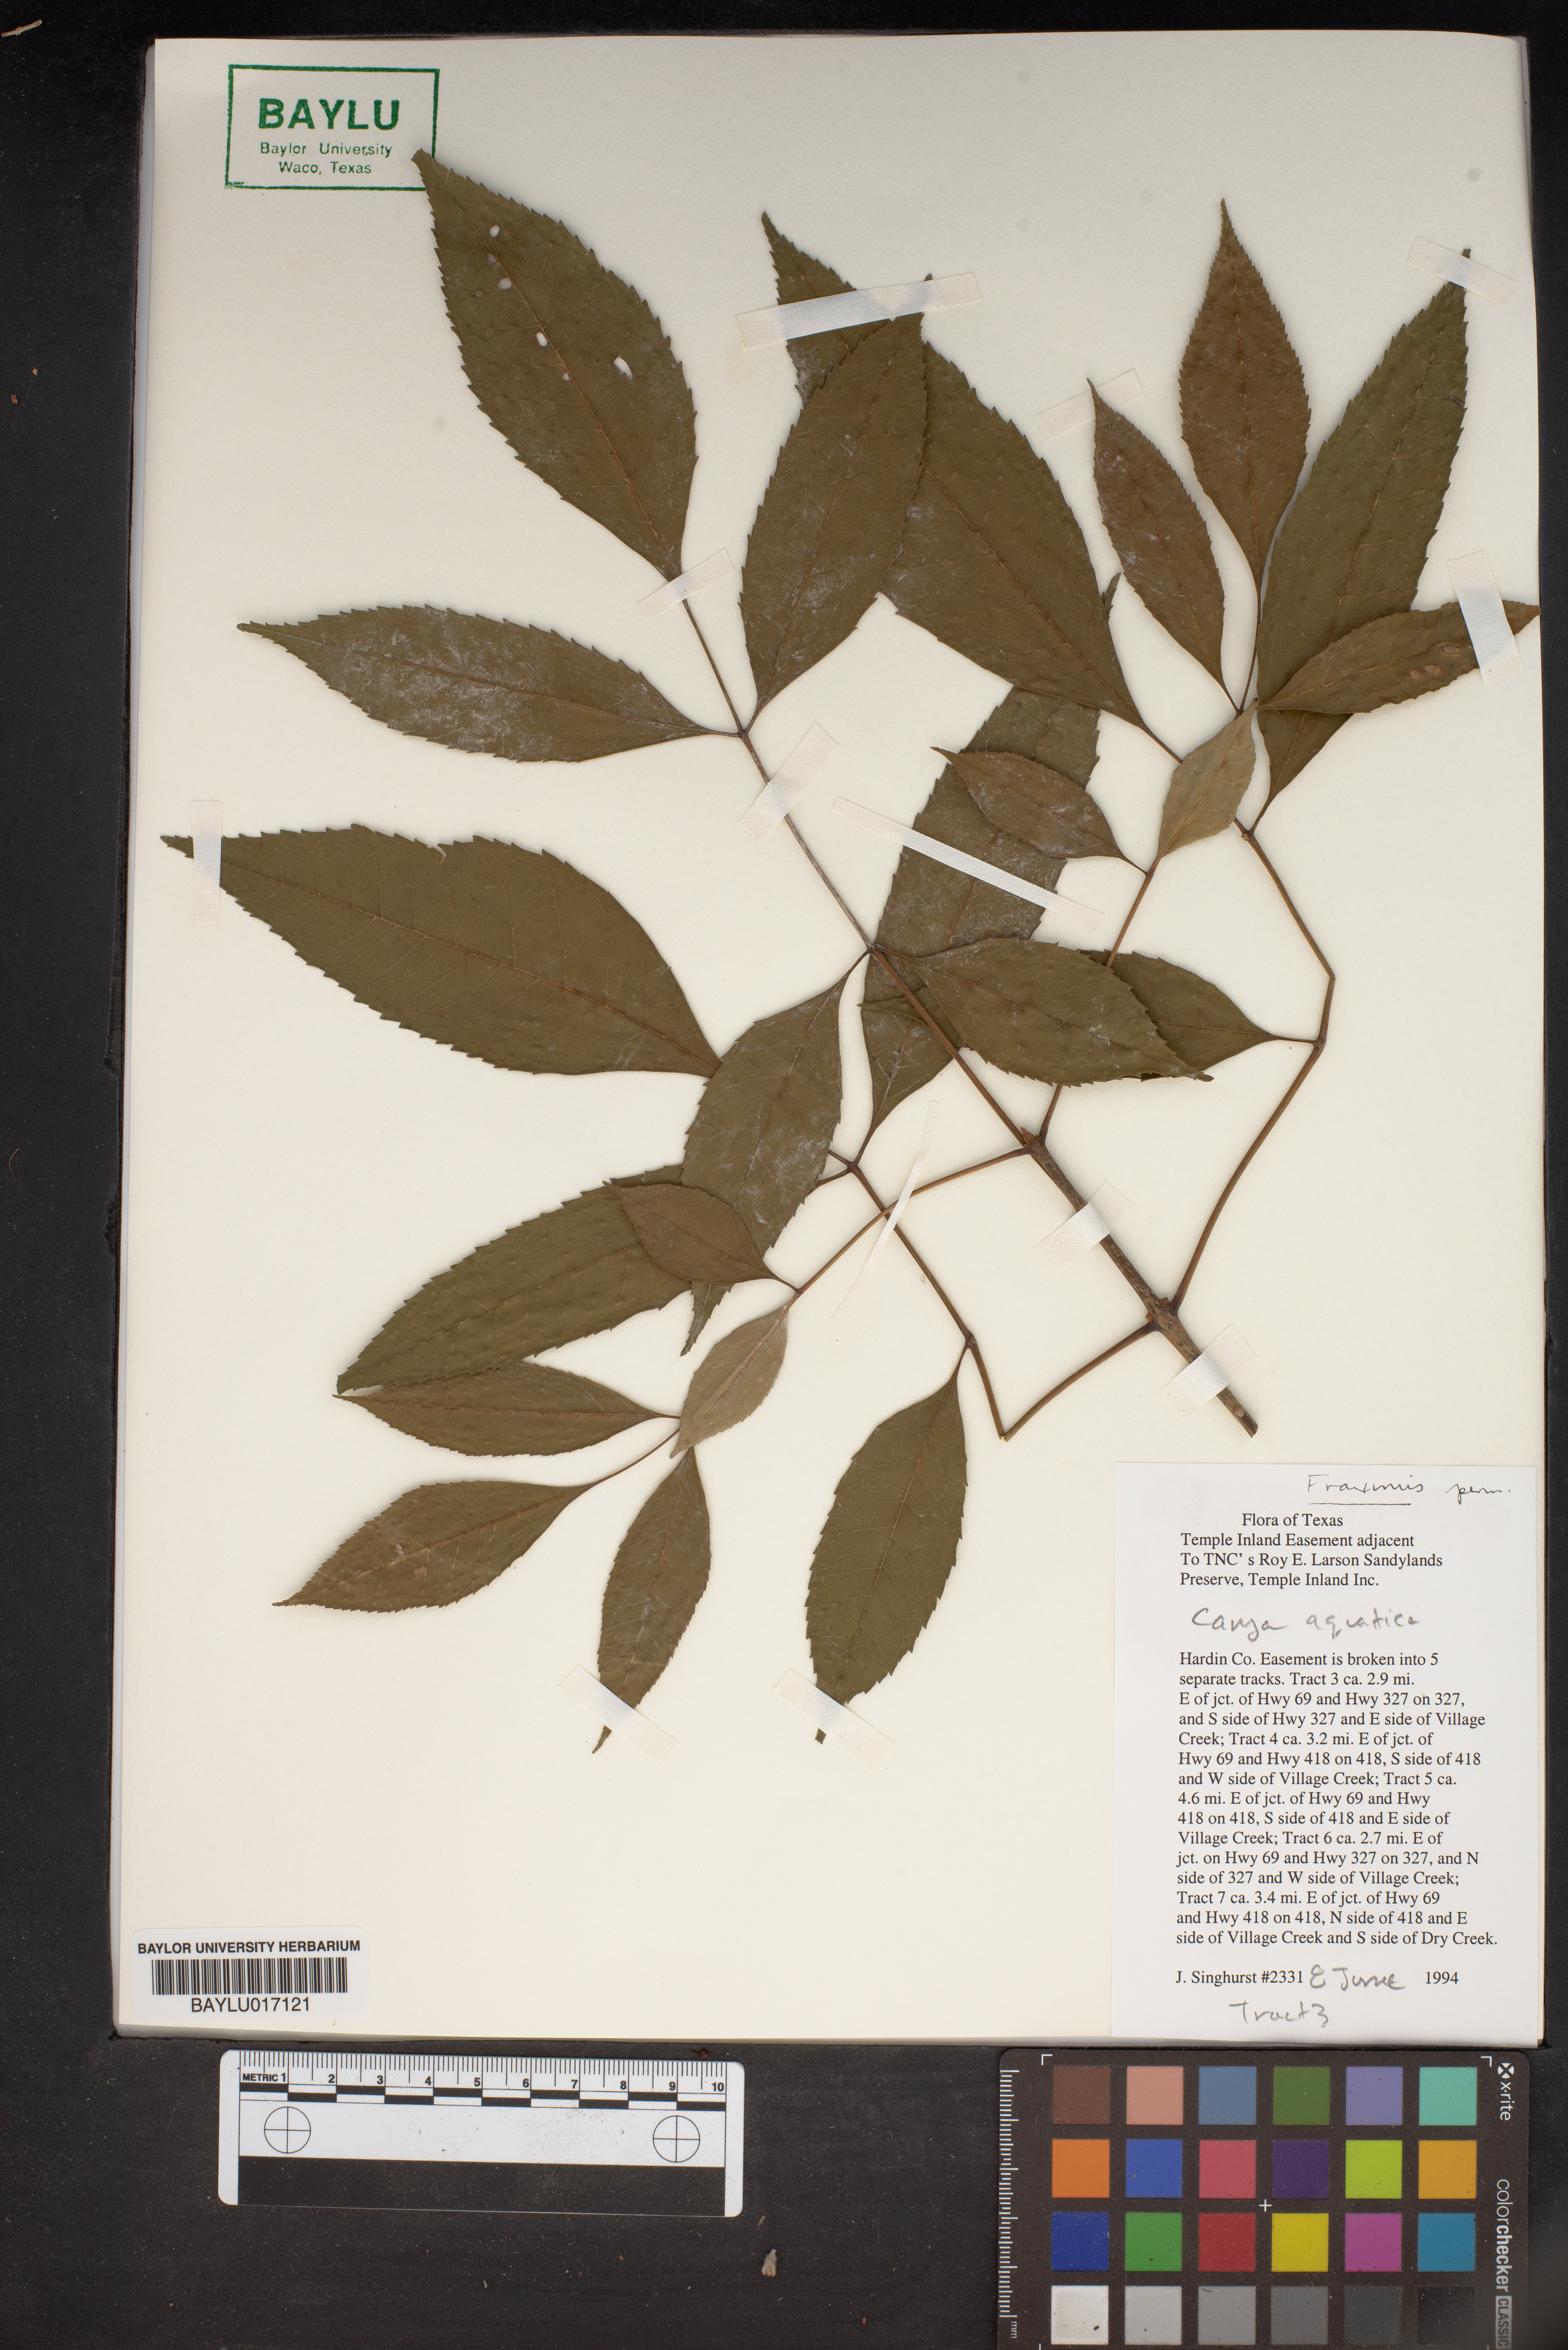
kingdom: Plantae
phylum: Tracheophyta
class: Magnoliopsida
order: Fagales
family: Juglandaceae
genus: Carya
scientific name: Carya aquatica
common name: Water hickory
